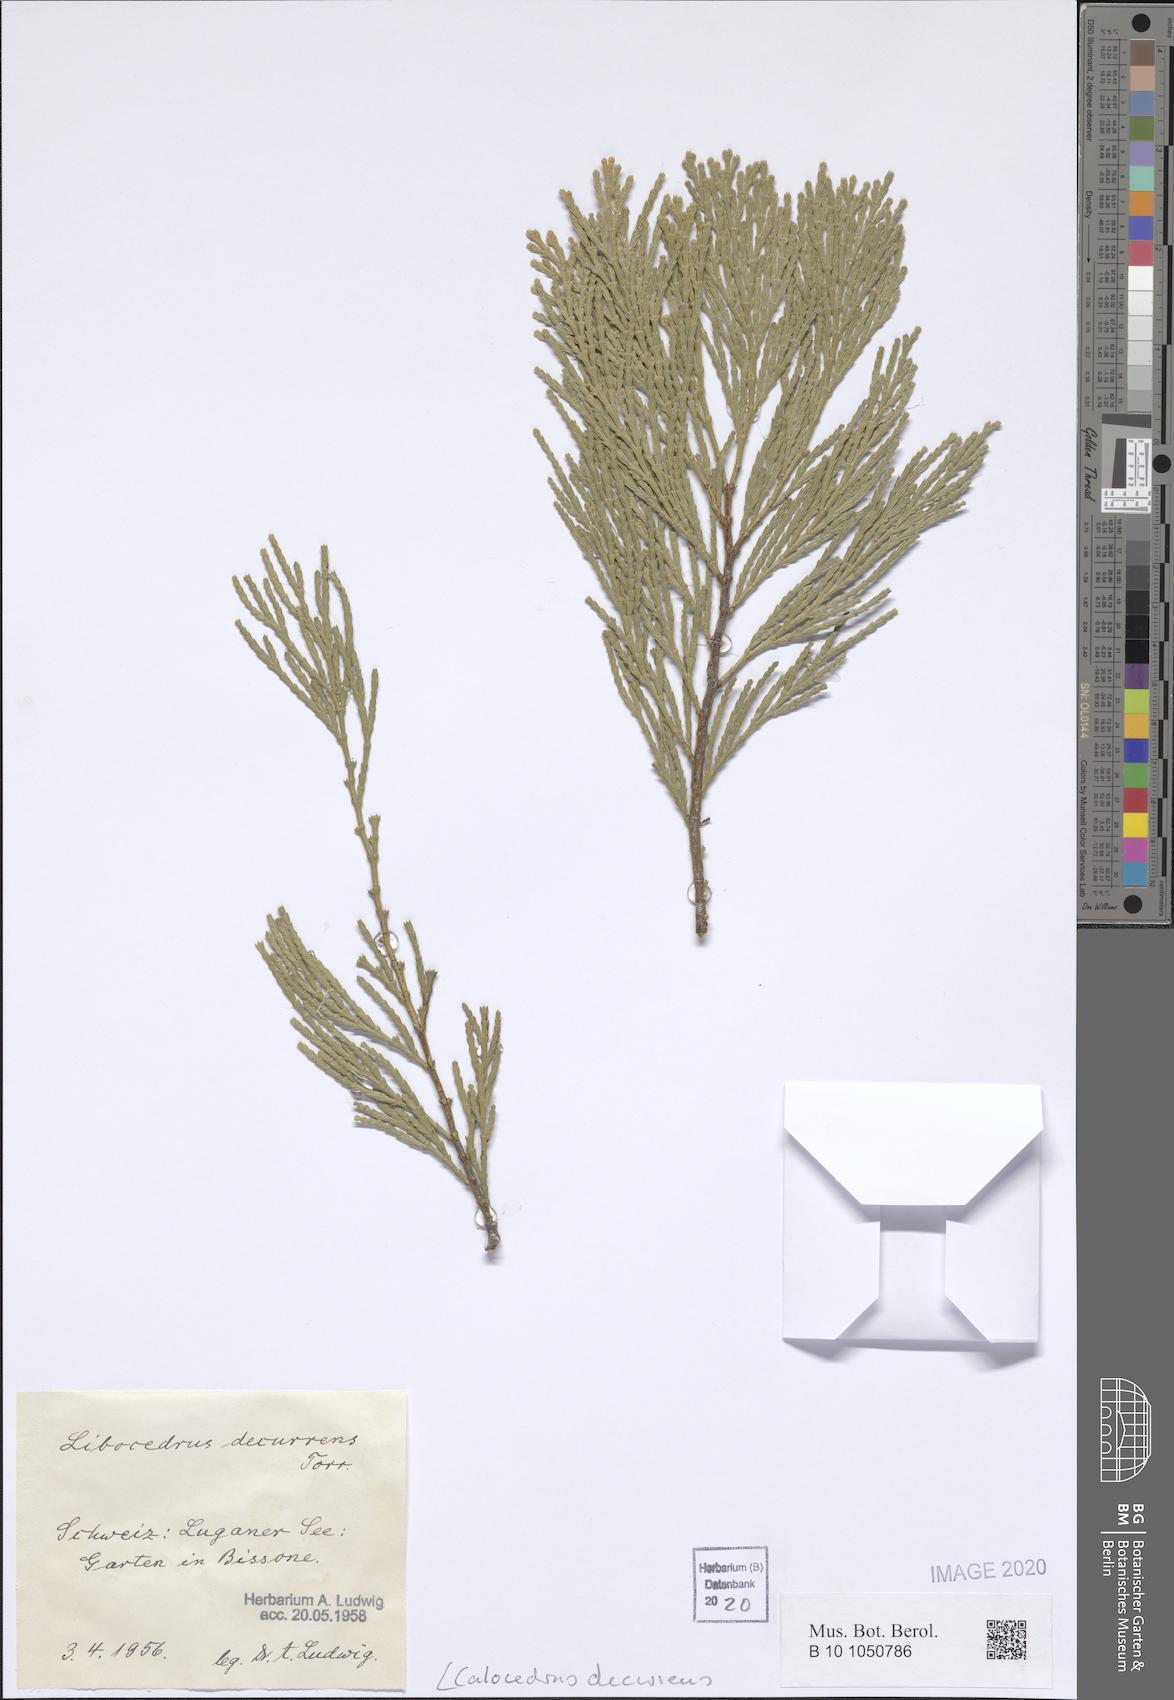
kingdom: Plantae
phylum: Tracheophyta
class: Pinopsida
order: Pinales
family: Cupressaceae
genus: Calocedrus
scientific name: Calocedrus decurrens
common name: Californian incense-cedar
